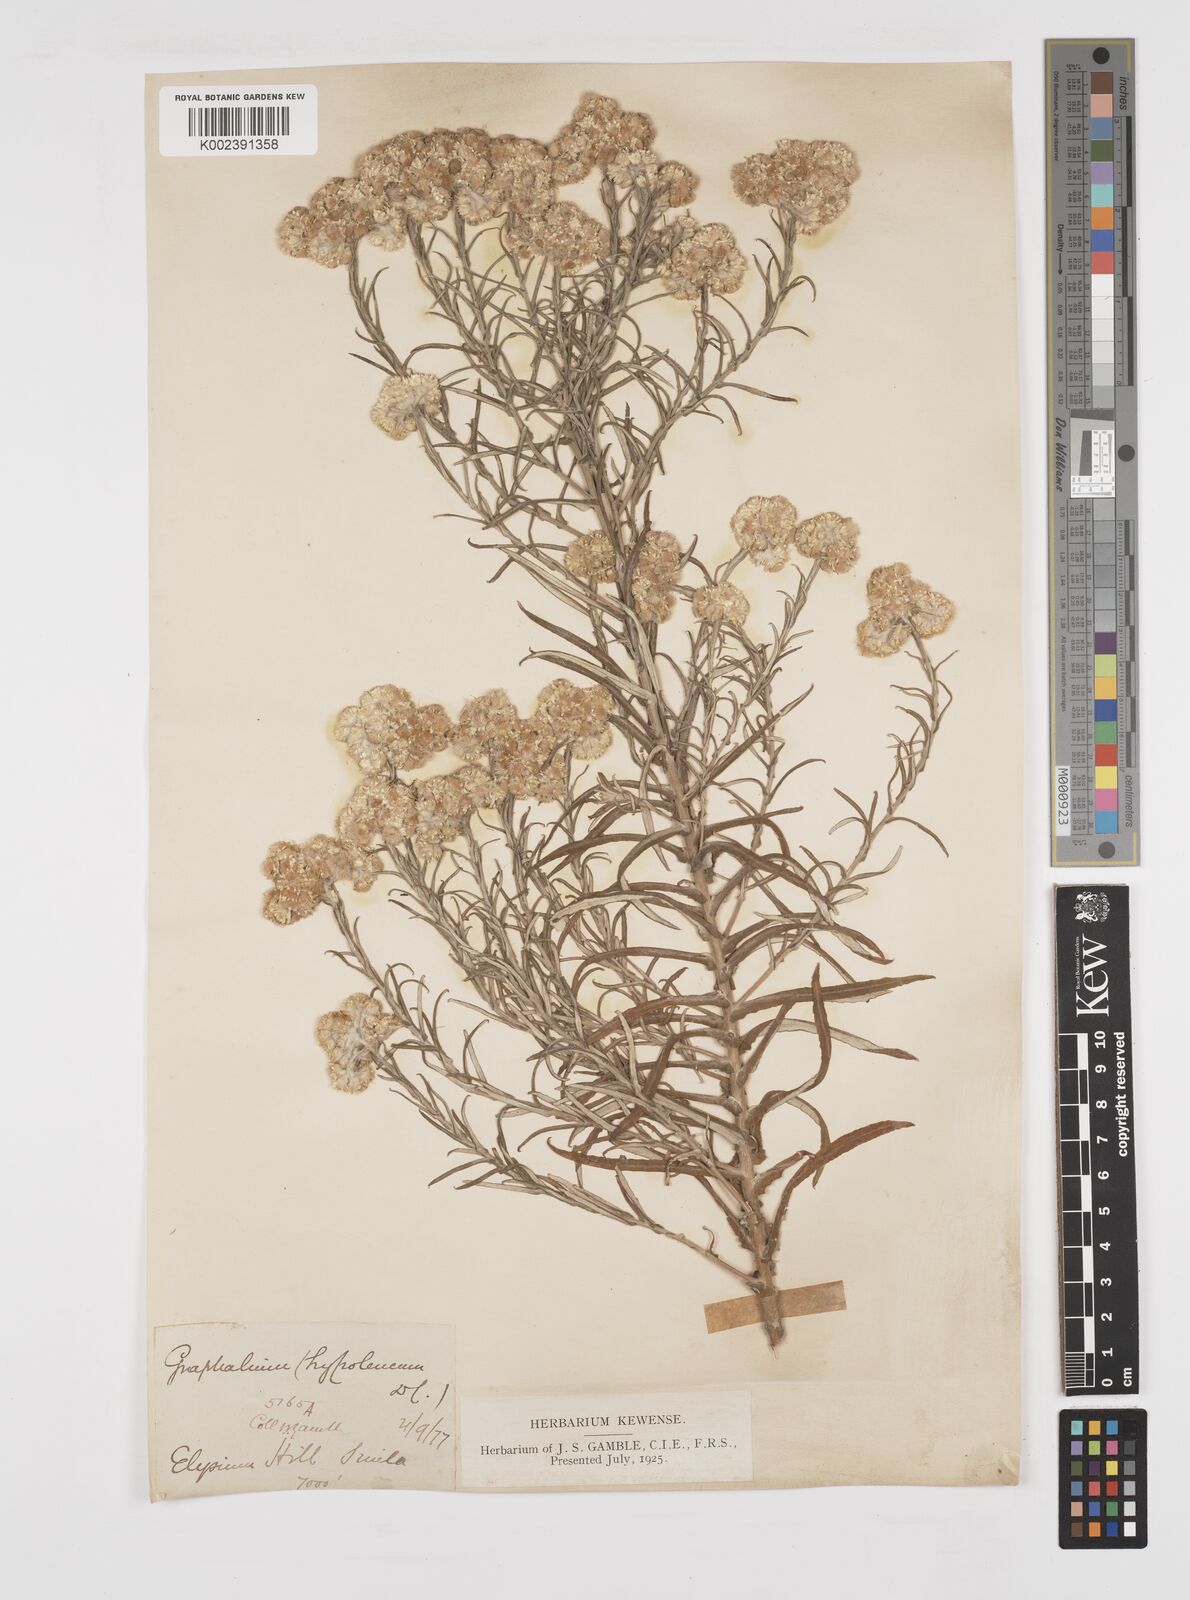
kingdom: Plantae
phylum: Tracheophyta
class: Magnoliopsida
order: Asterales
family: Asteraceae
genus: Pseudognaphalium
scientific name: Pseudognaphalium hypoleucum
